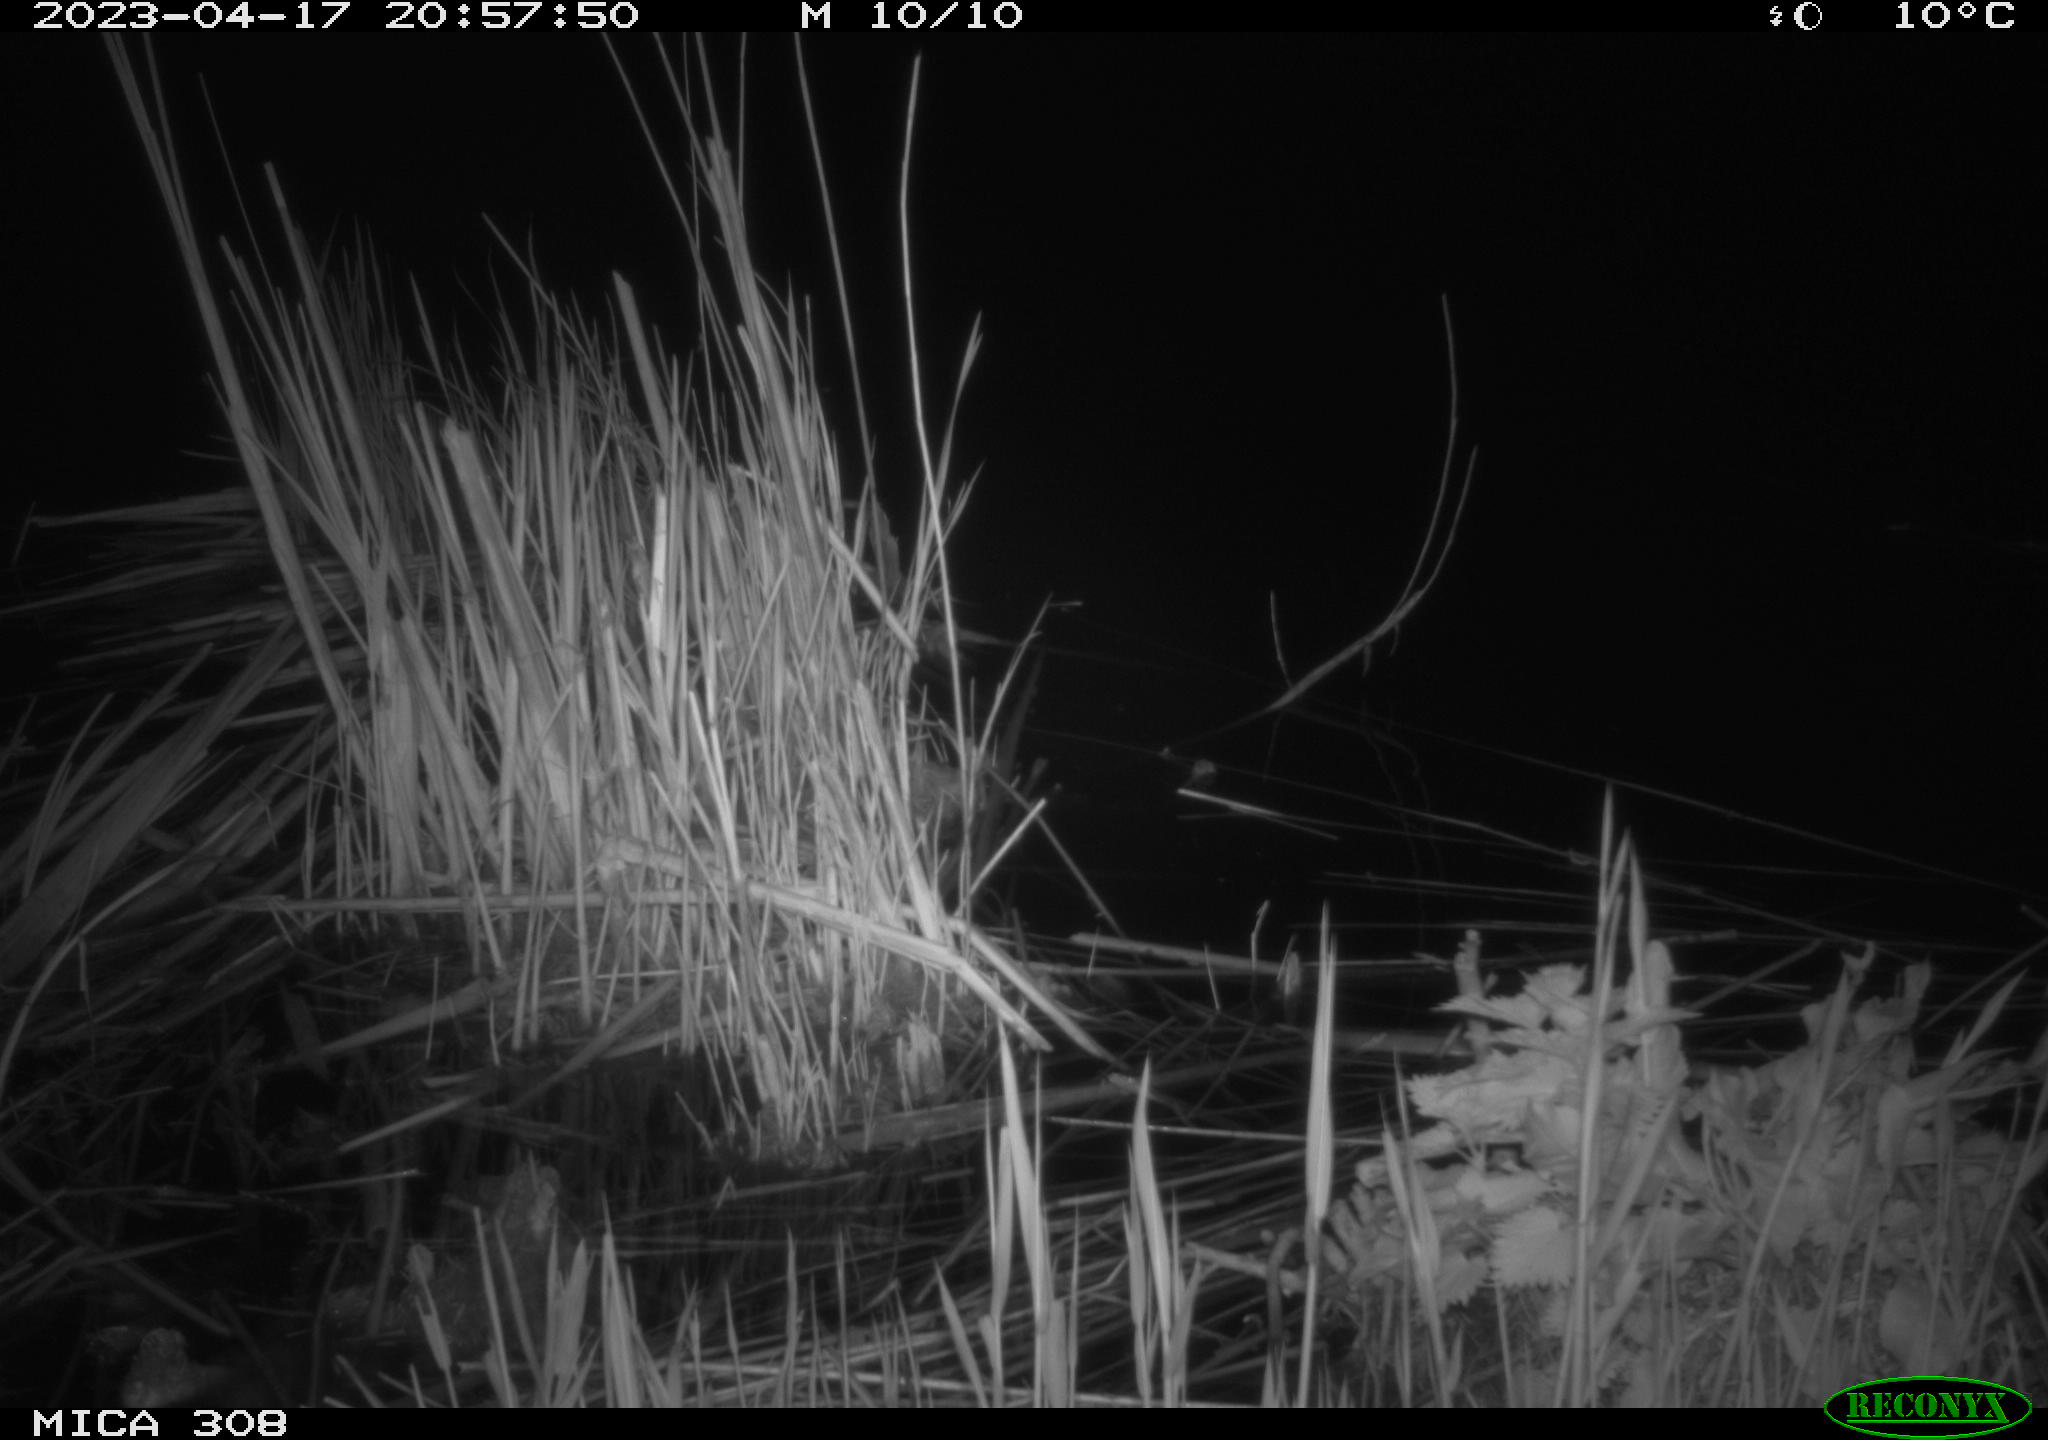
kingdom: Animalia
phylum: Chordata
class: Aves
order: Anseriformes
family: Anatidae
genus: Anas
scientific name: Anas
